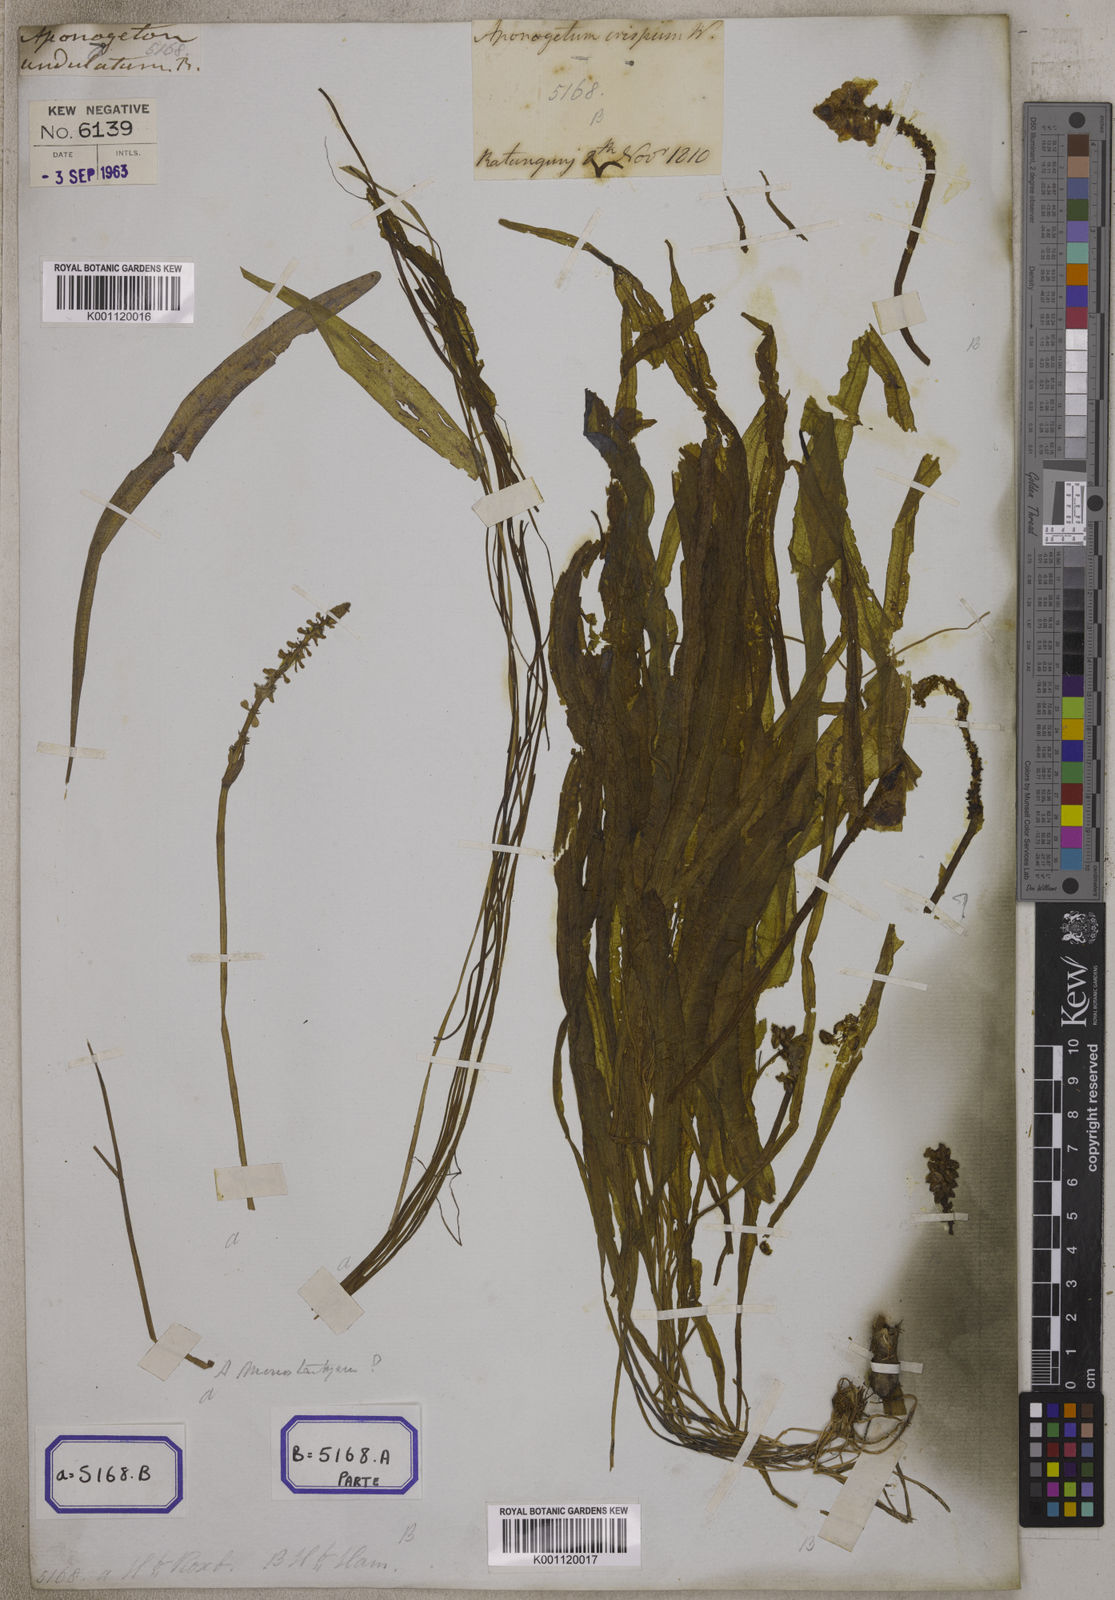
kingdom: Plantae
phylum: Tracheophyta
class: Liliopsida
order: Alismatales
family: Aponogetonaceae
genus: Aponogeton
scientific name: Aponogeton crispus
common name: Crinkled aponogeton
